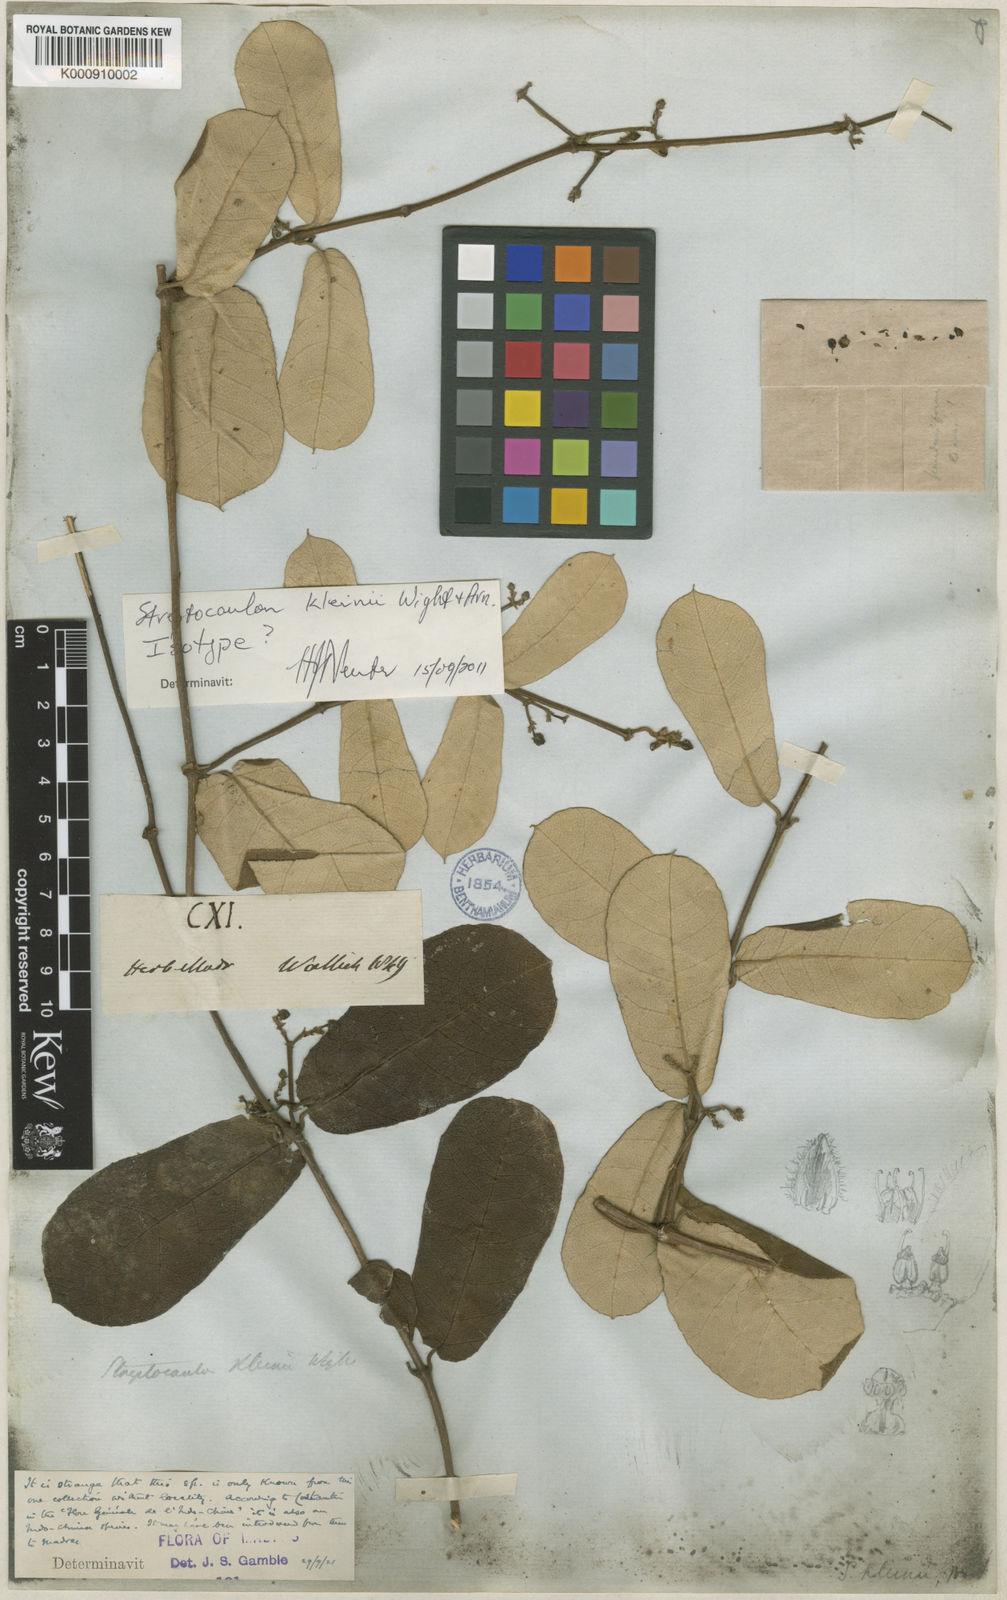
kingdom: Plantae
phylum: Tracheophyta
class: Magnoliopsida
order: Gentianales
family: Apocynaceae
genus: Streptocaulon
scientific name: Streptocaulon kleinii
